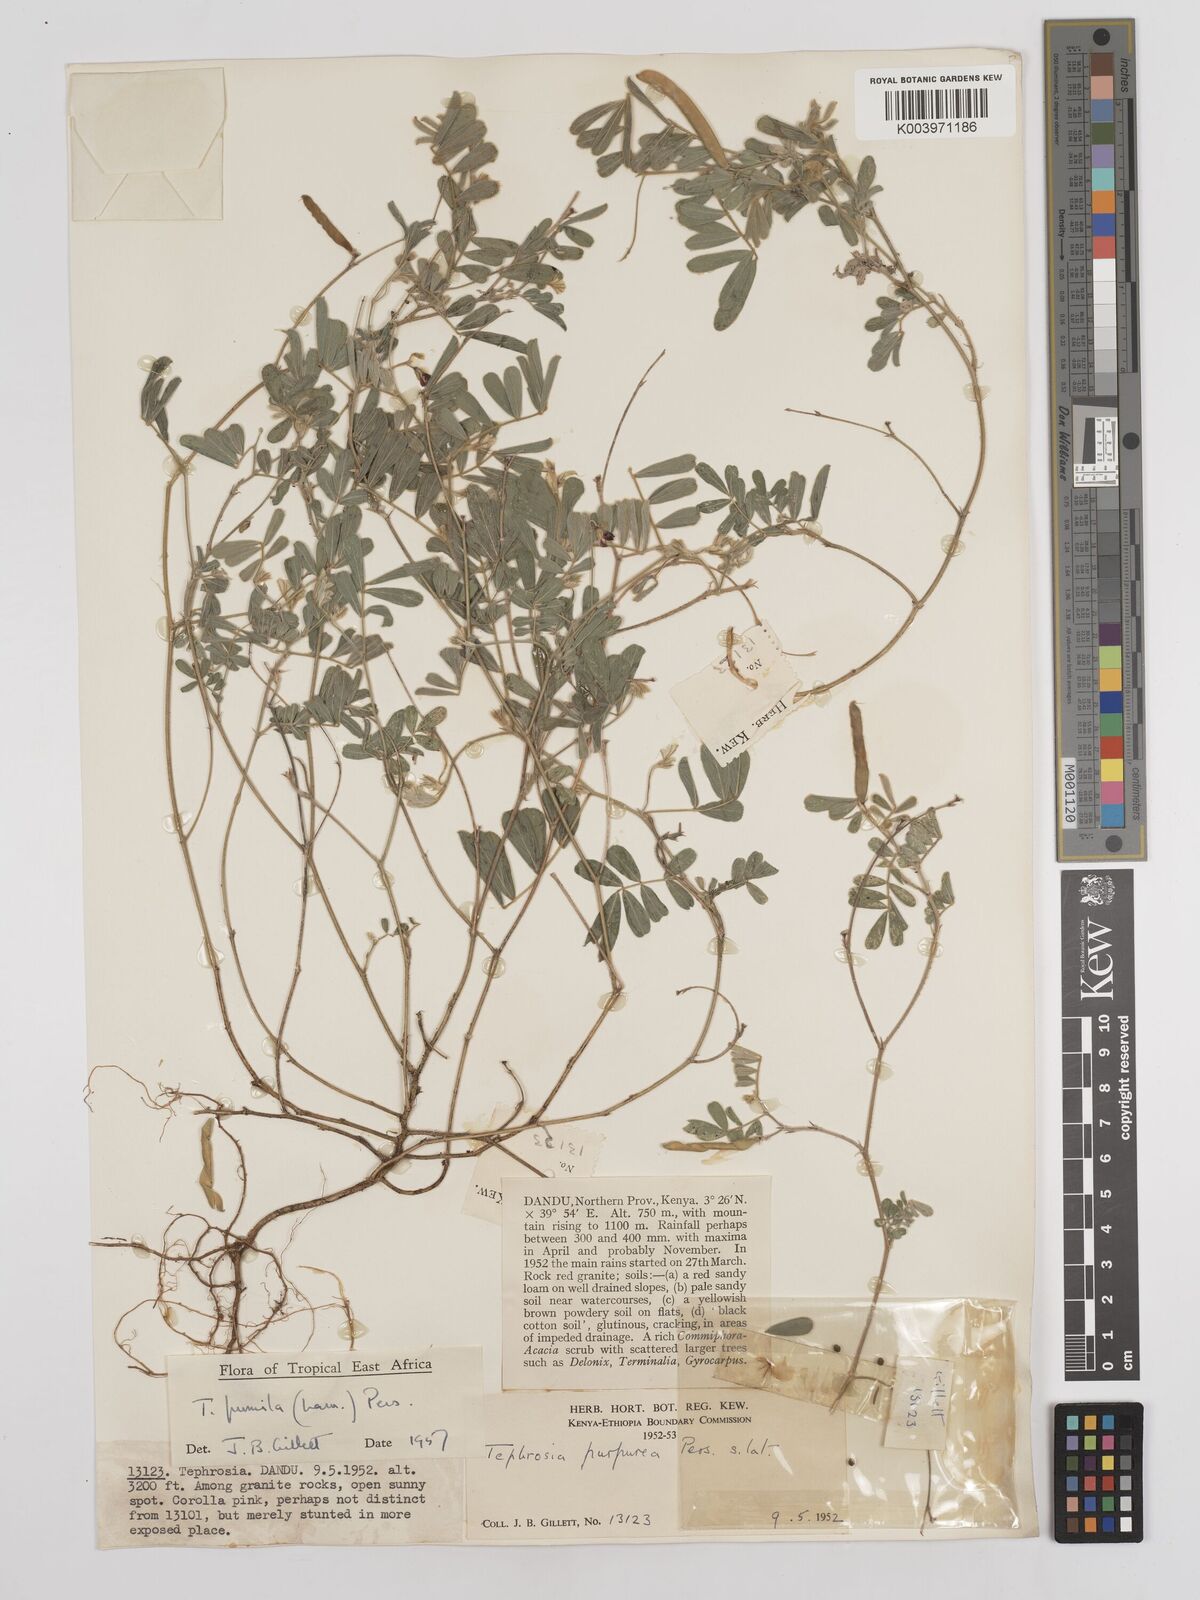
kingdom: Plantae
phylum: Tracheophyta
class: Magnoliopsida
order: Fabales
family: Fabaceae
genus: Tephrosia
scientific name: Tephrosia pumila
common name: Indigo sauvage
